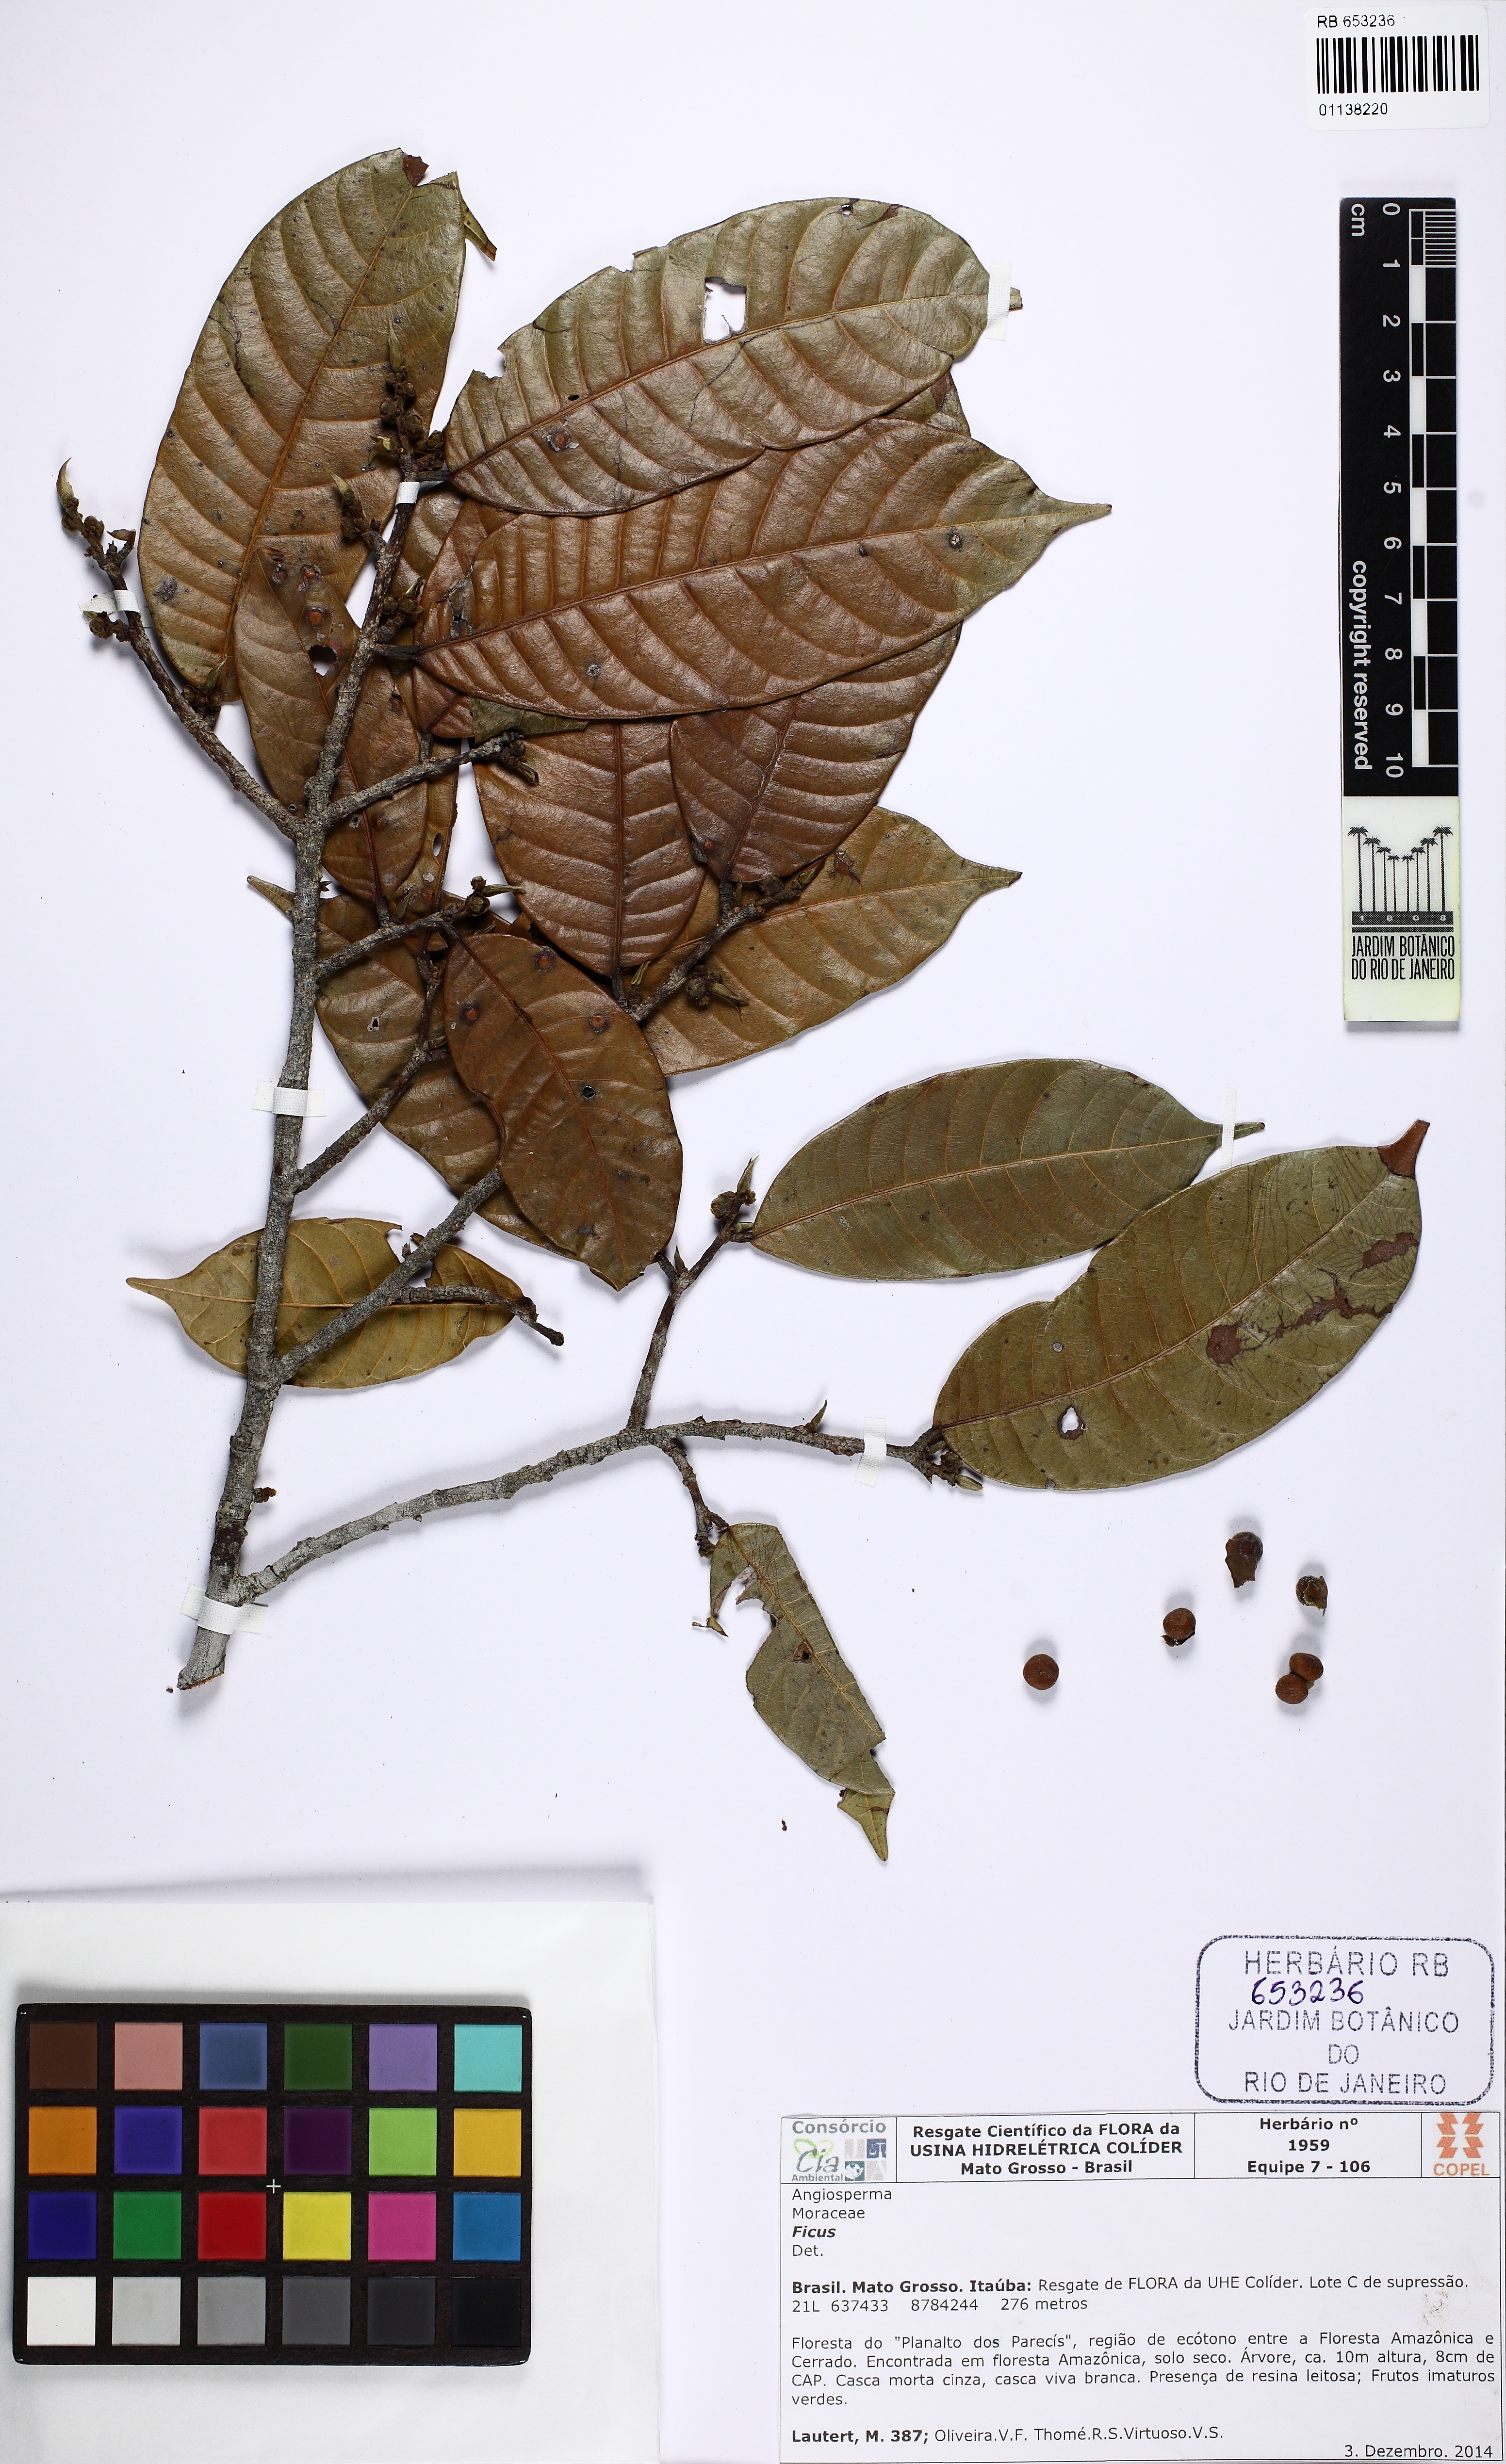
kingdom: Plantae
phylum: Tracheophyta
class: Magnoliopsida
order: Rosales
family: Moraceae
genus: Ficus
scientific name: Ficus
